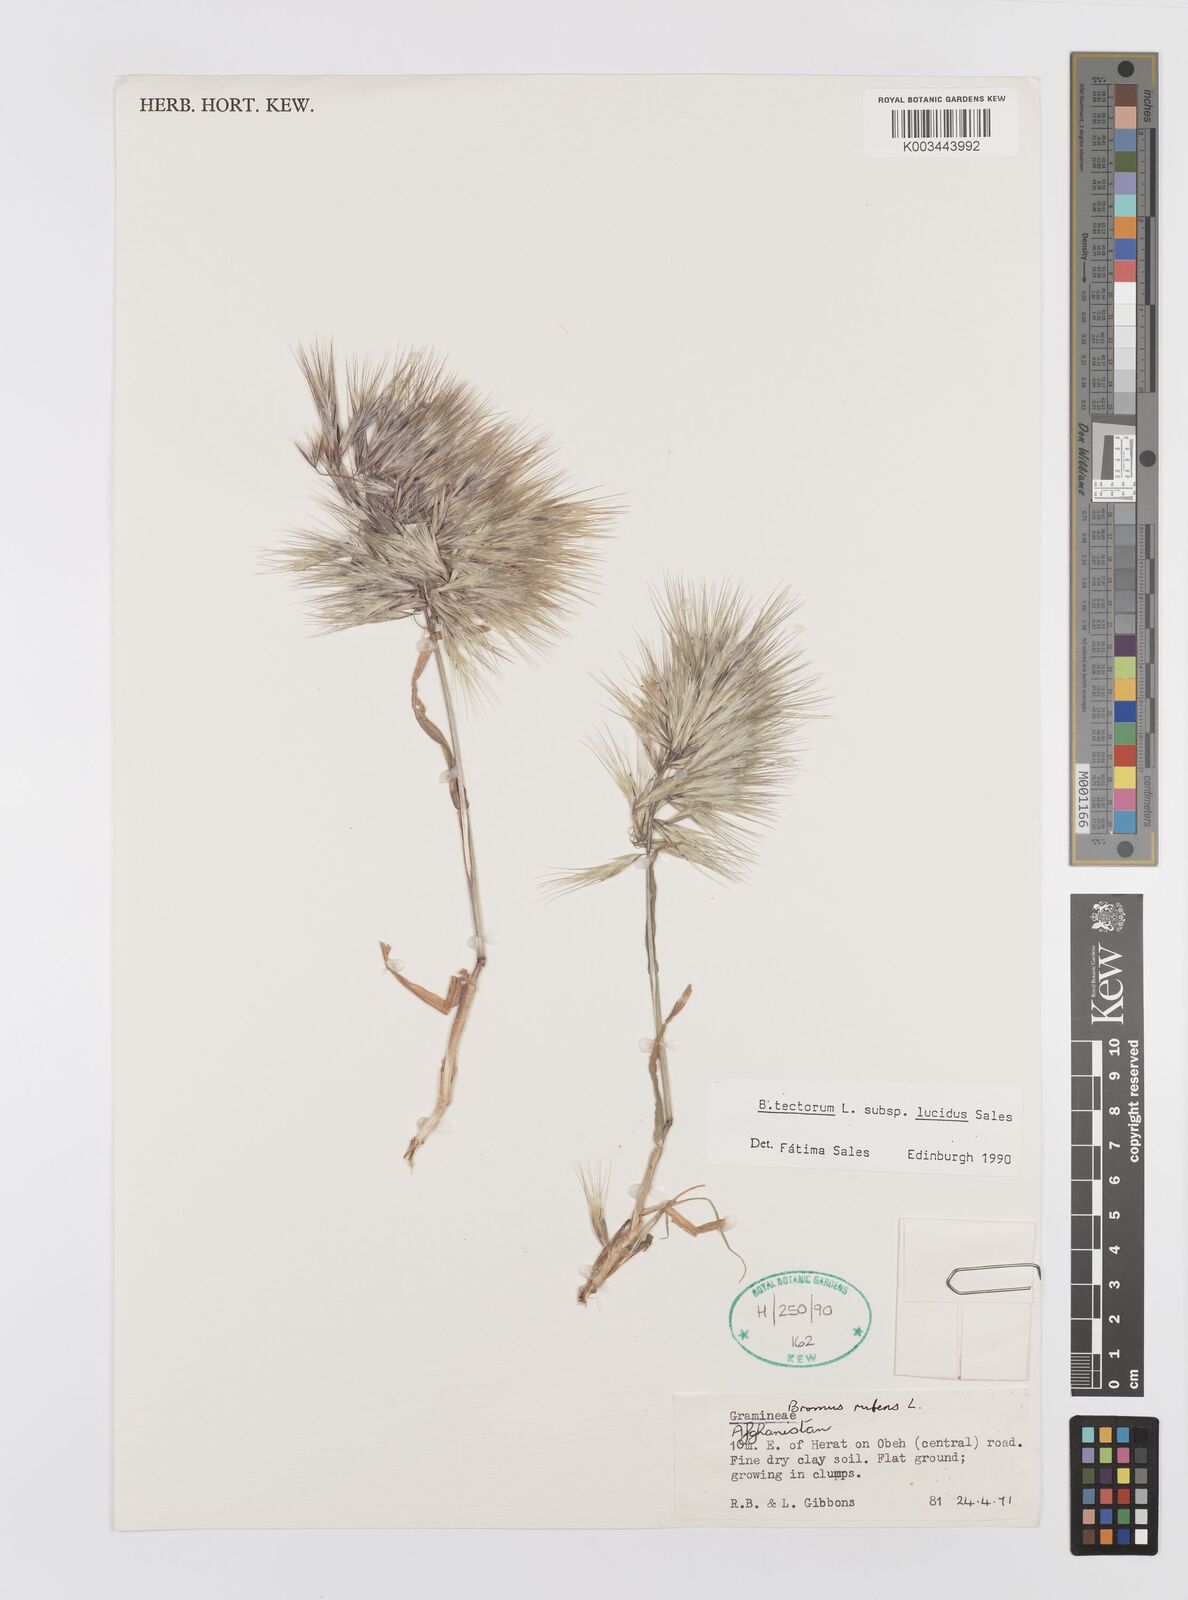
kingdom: Plantae
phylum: Tracheophyta
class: Liliopsida
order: Poales
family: Poaceae
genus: Bromus
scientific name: Bromus moeszii
